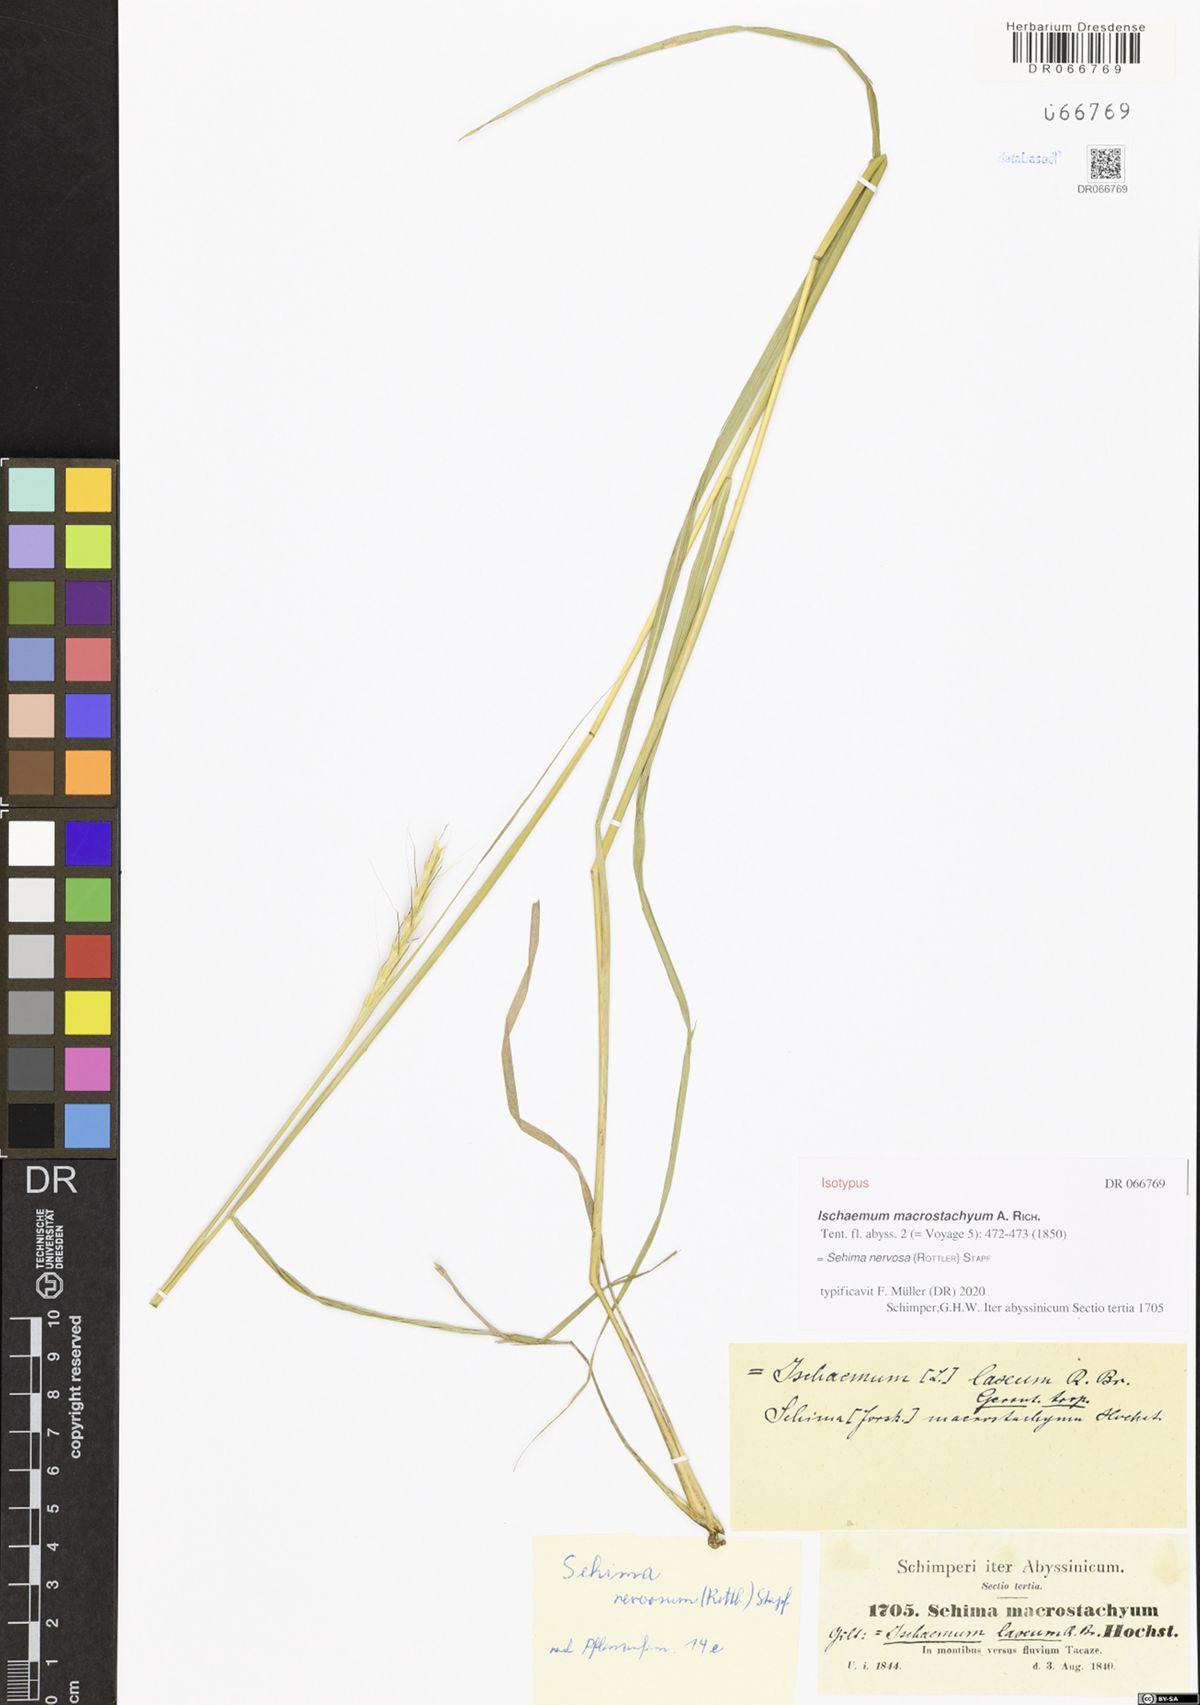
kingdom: Plantae
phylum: Tracheophyta
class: Liliopsida
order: Poales
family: Poaceae
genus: Sehima
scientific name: Sehima nervosa
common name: Rat-tail grass
